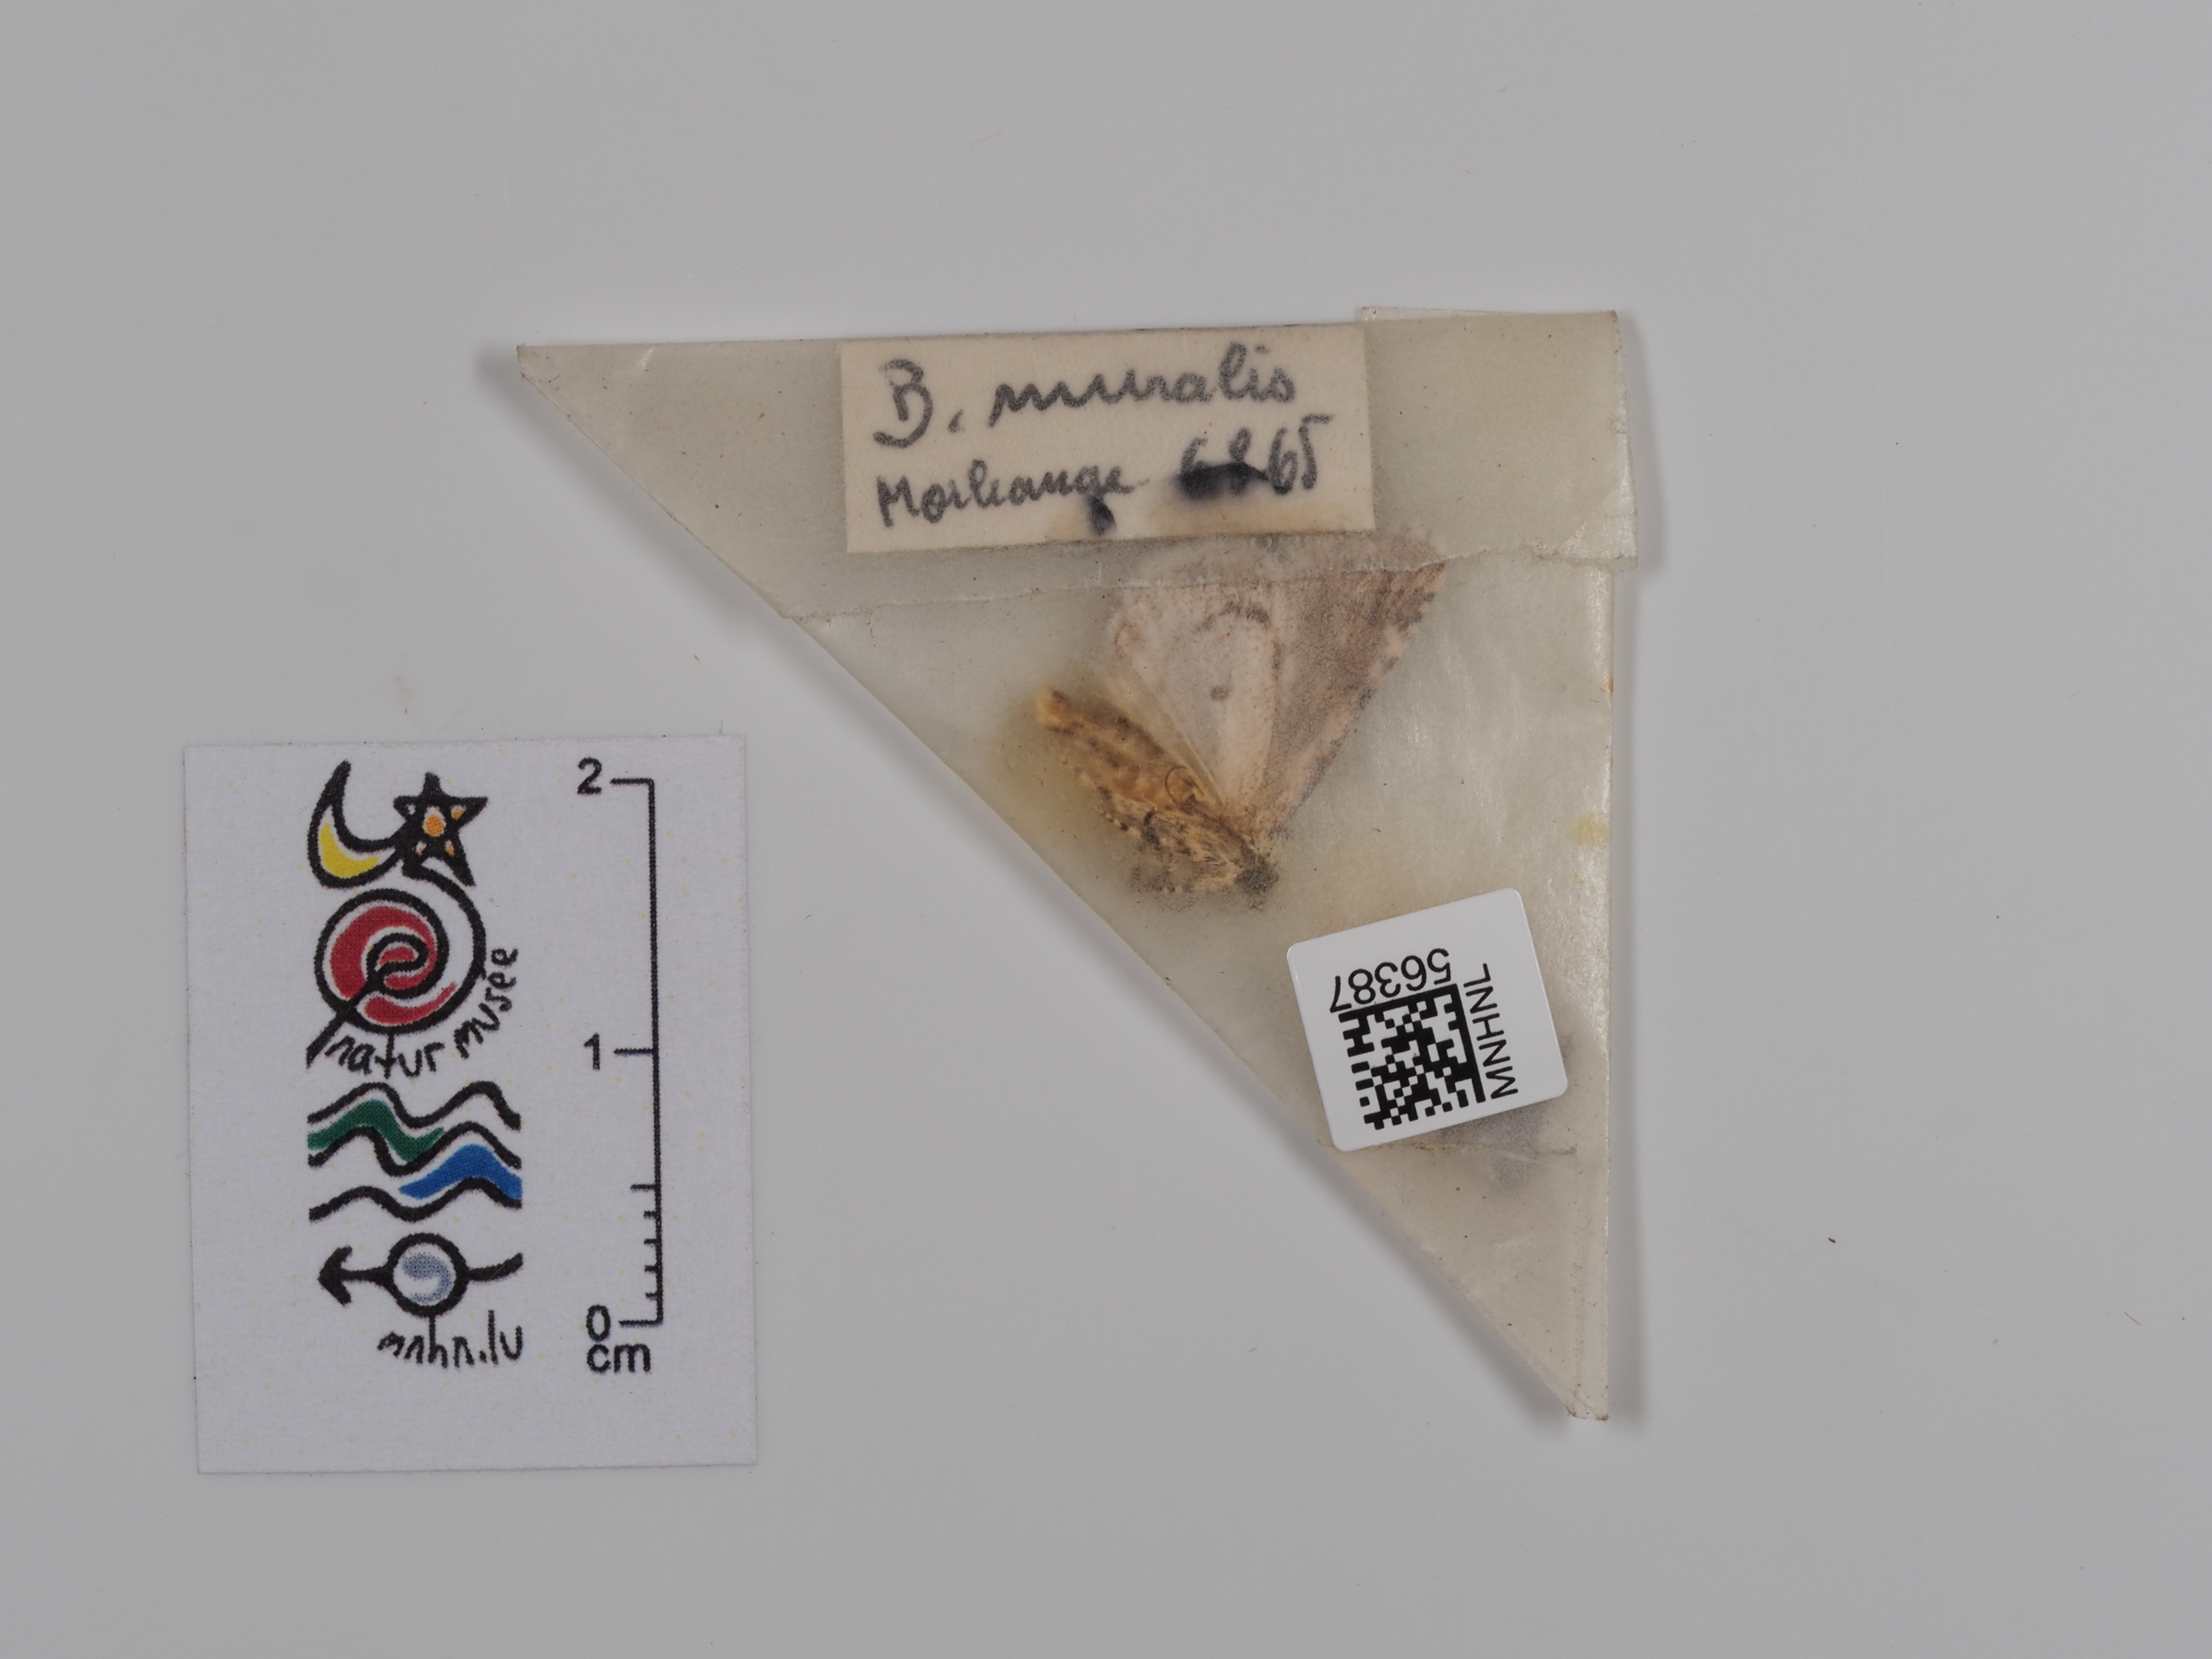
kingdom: Animalia
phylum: Arthropoda
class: Insecta
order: Lepidoptera
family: Noctuidae
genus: Nyctobrya
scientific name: Nyctobrya muralis
